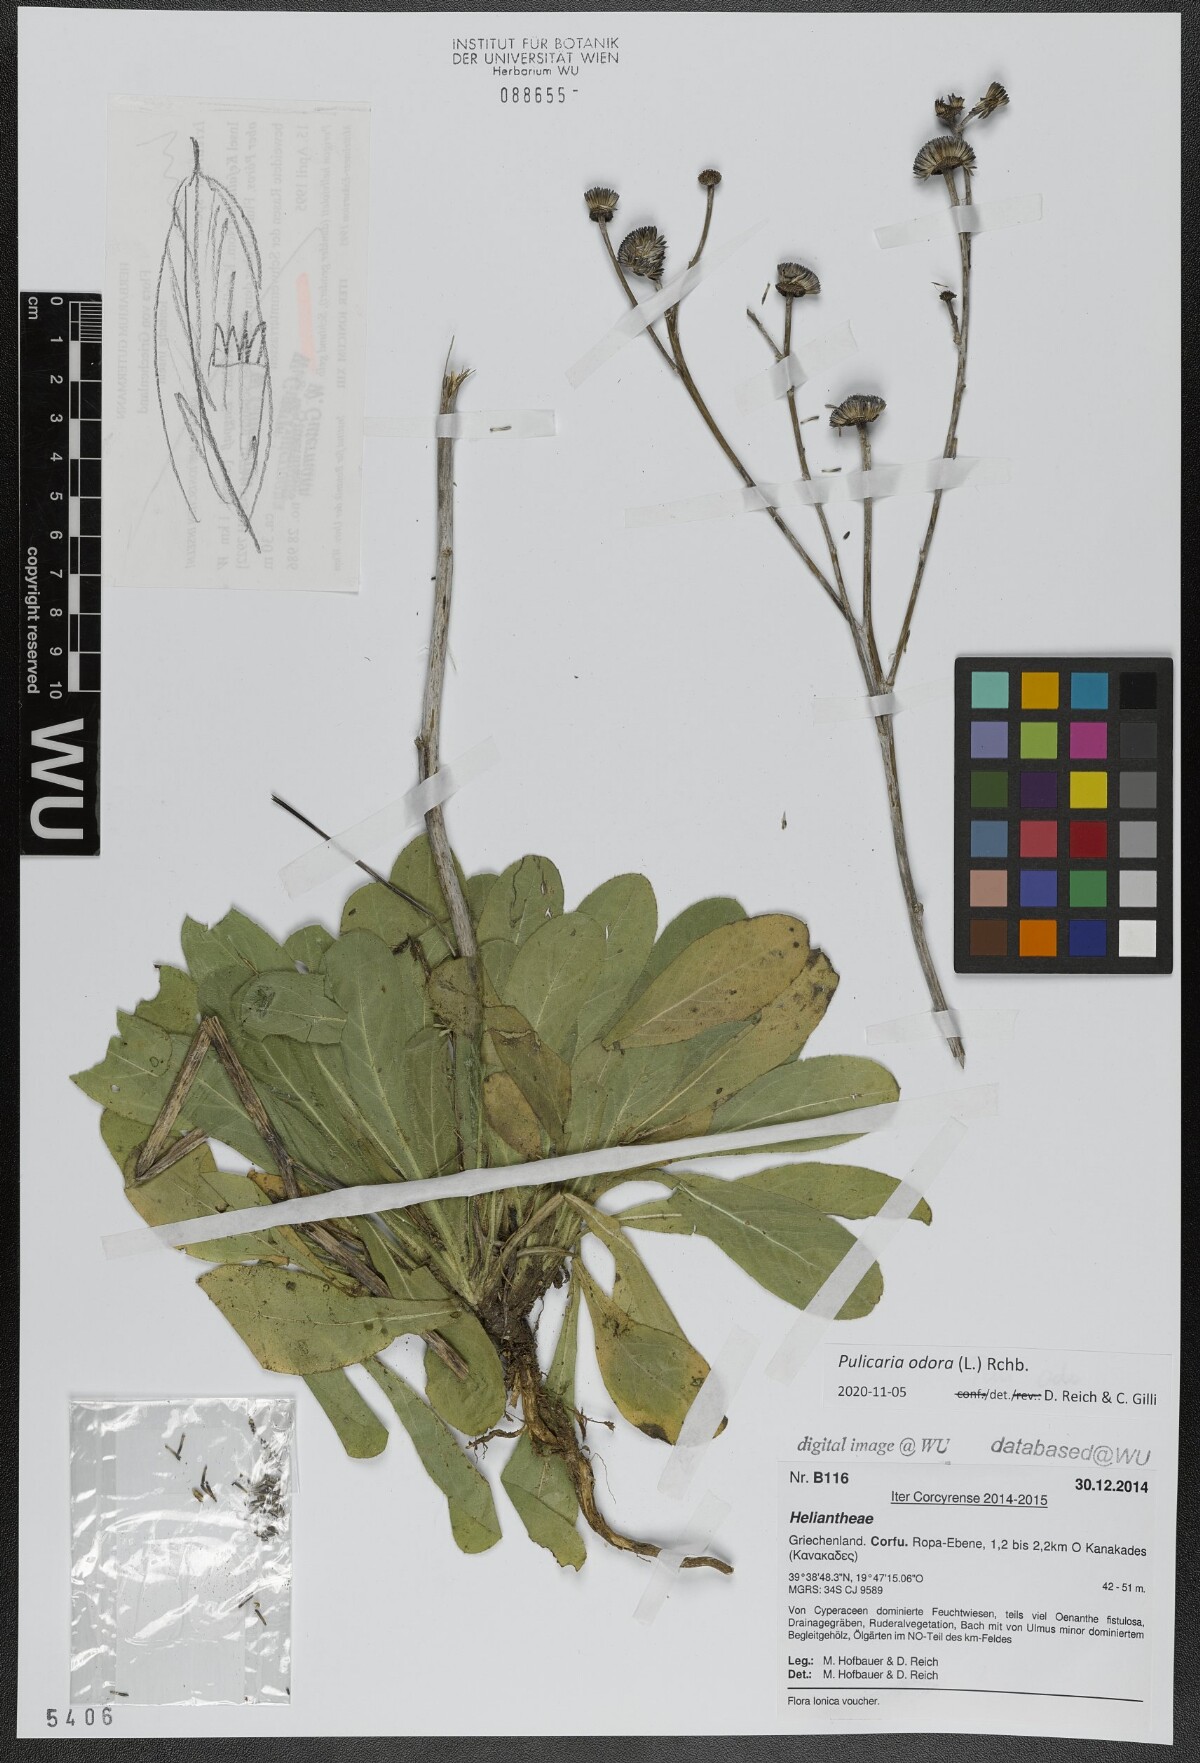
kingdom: Plantae
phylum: Tracheophyta
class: Magnoliopsida
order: Asterales
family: Asteraceae
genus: Pulicaria
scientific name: Pulicaria odora
